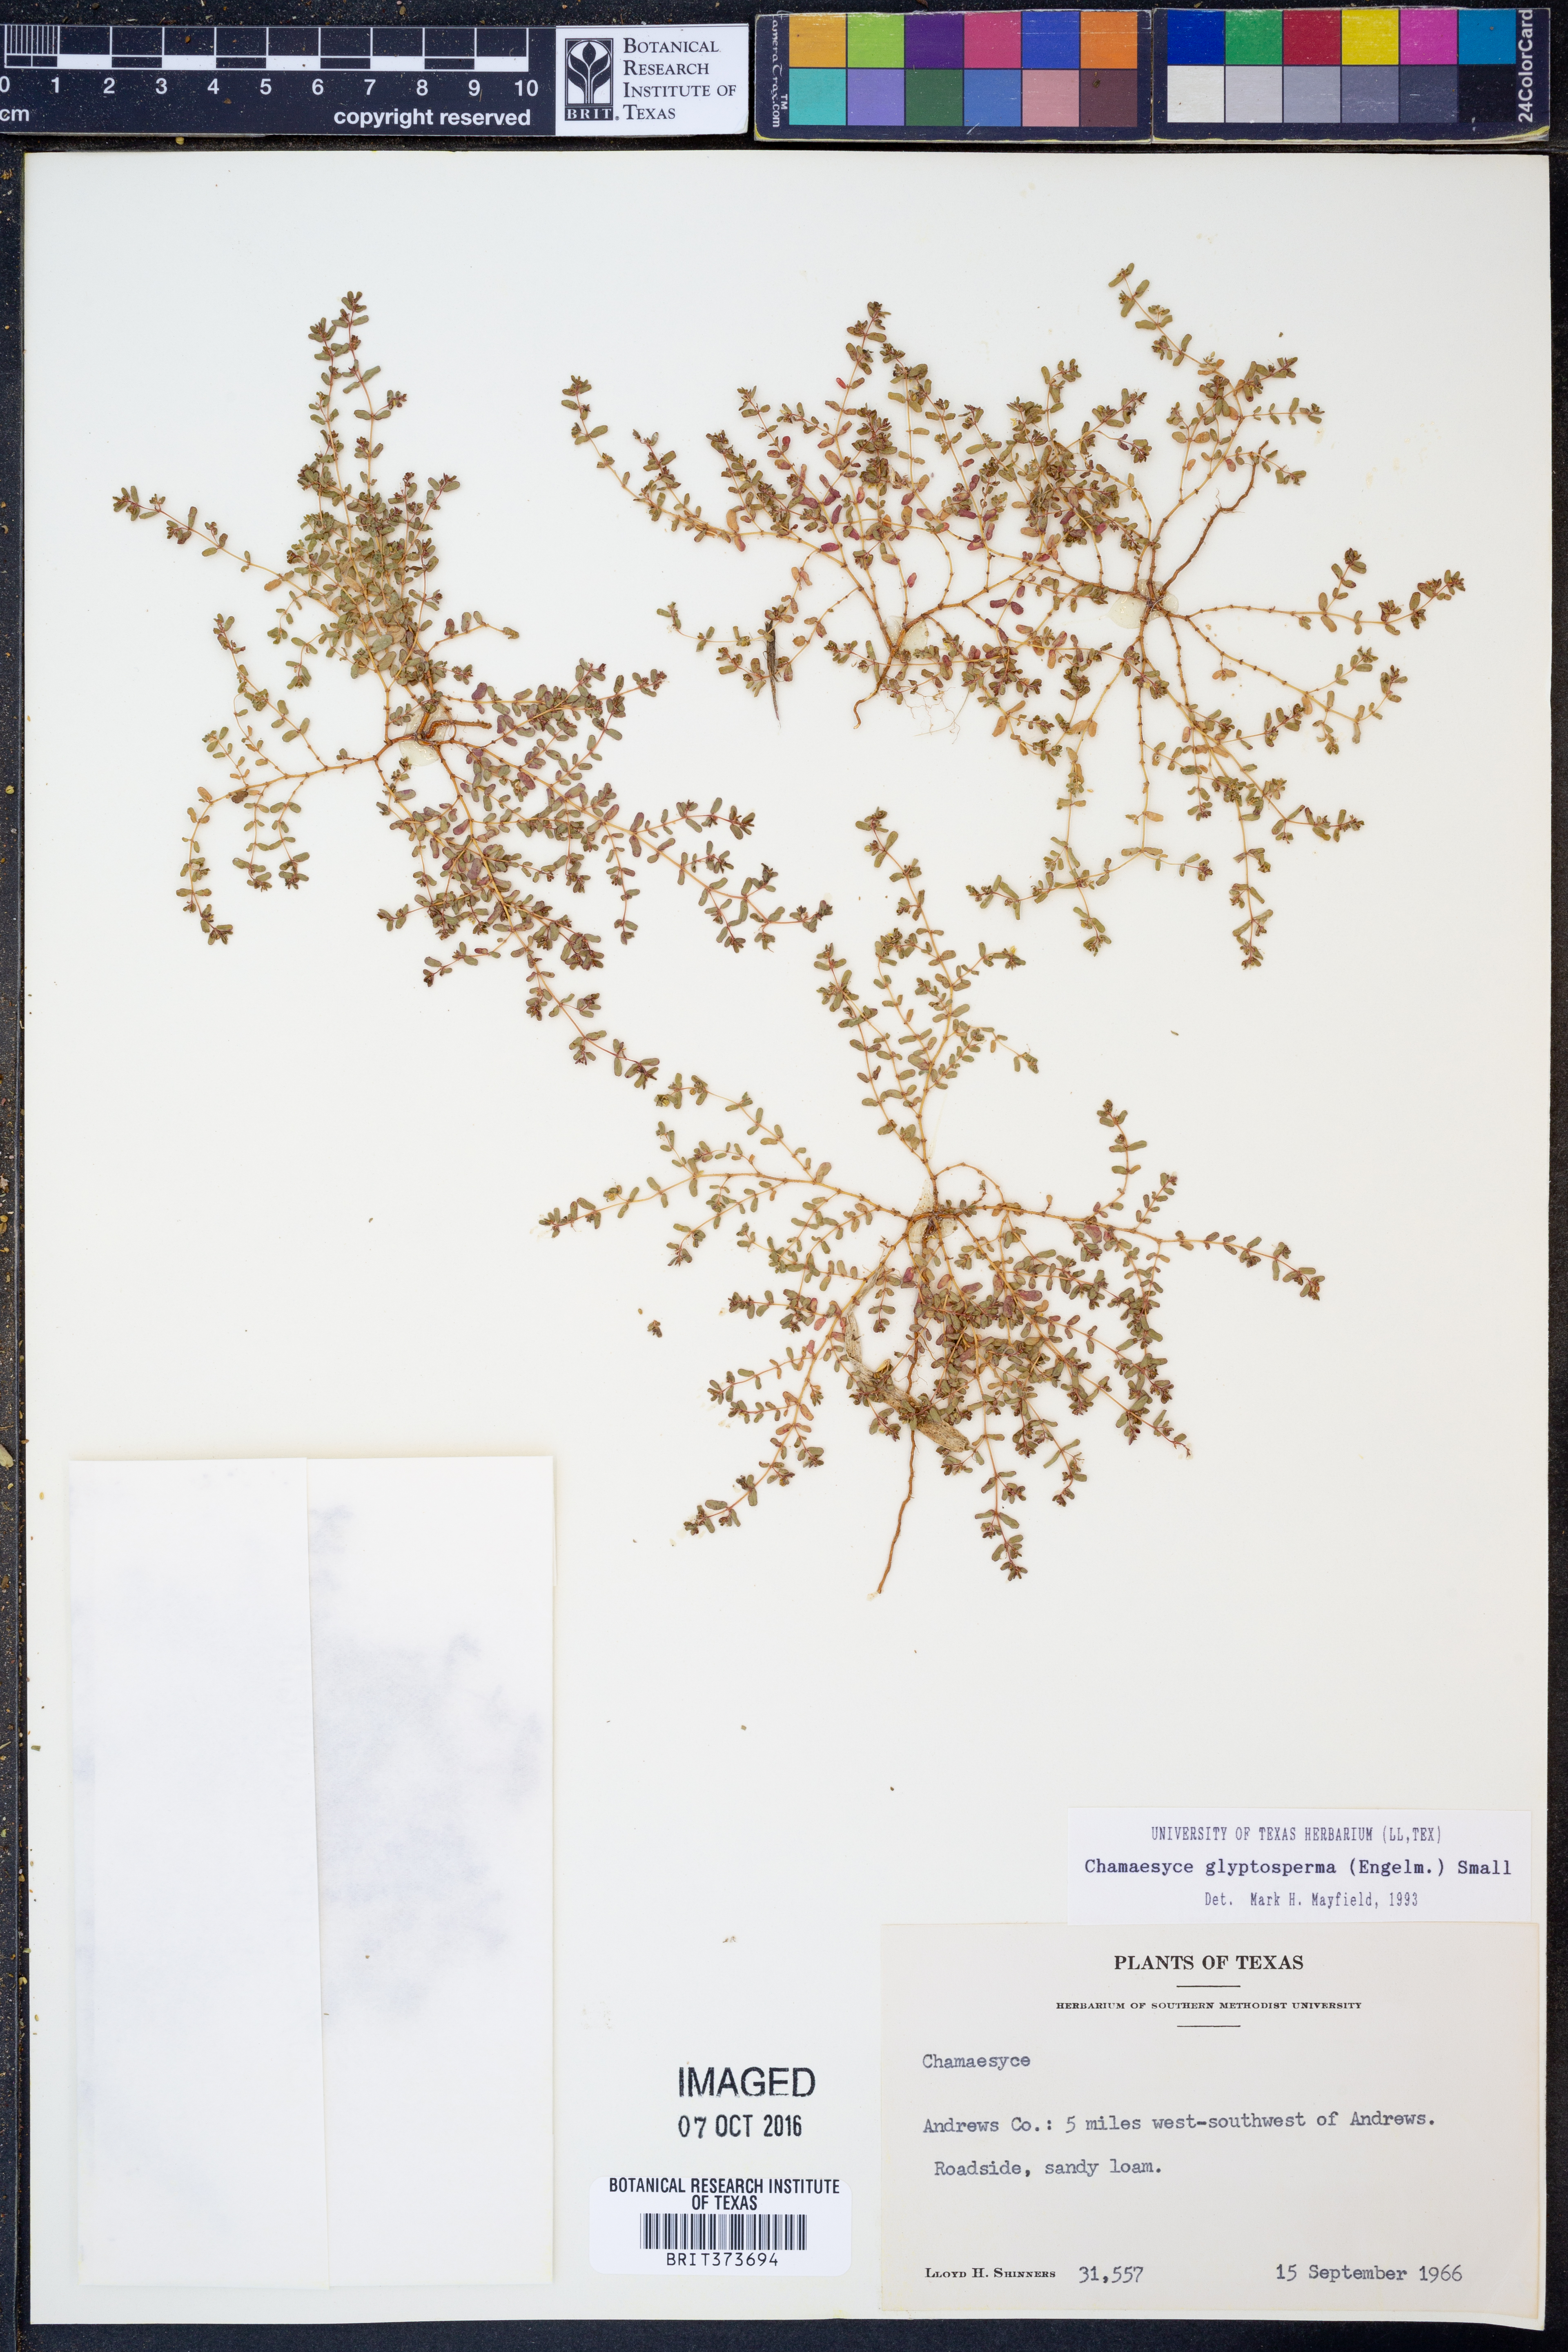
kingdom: Plantae
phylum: Tracheophyta
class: Magnoliopsida
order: Malpighiales
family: Euphorbiaceae
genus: Euphorbia
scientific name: Euphorbia glyptosperma
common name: Corrugate-seeded spurge
